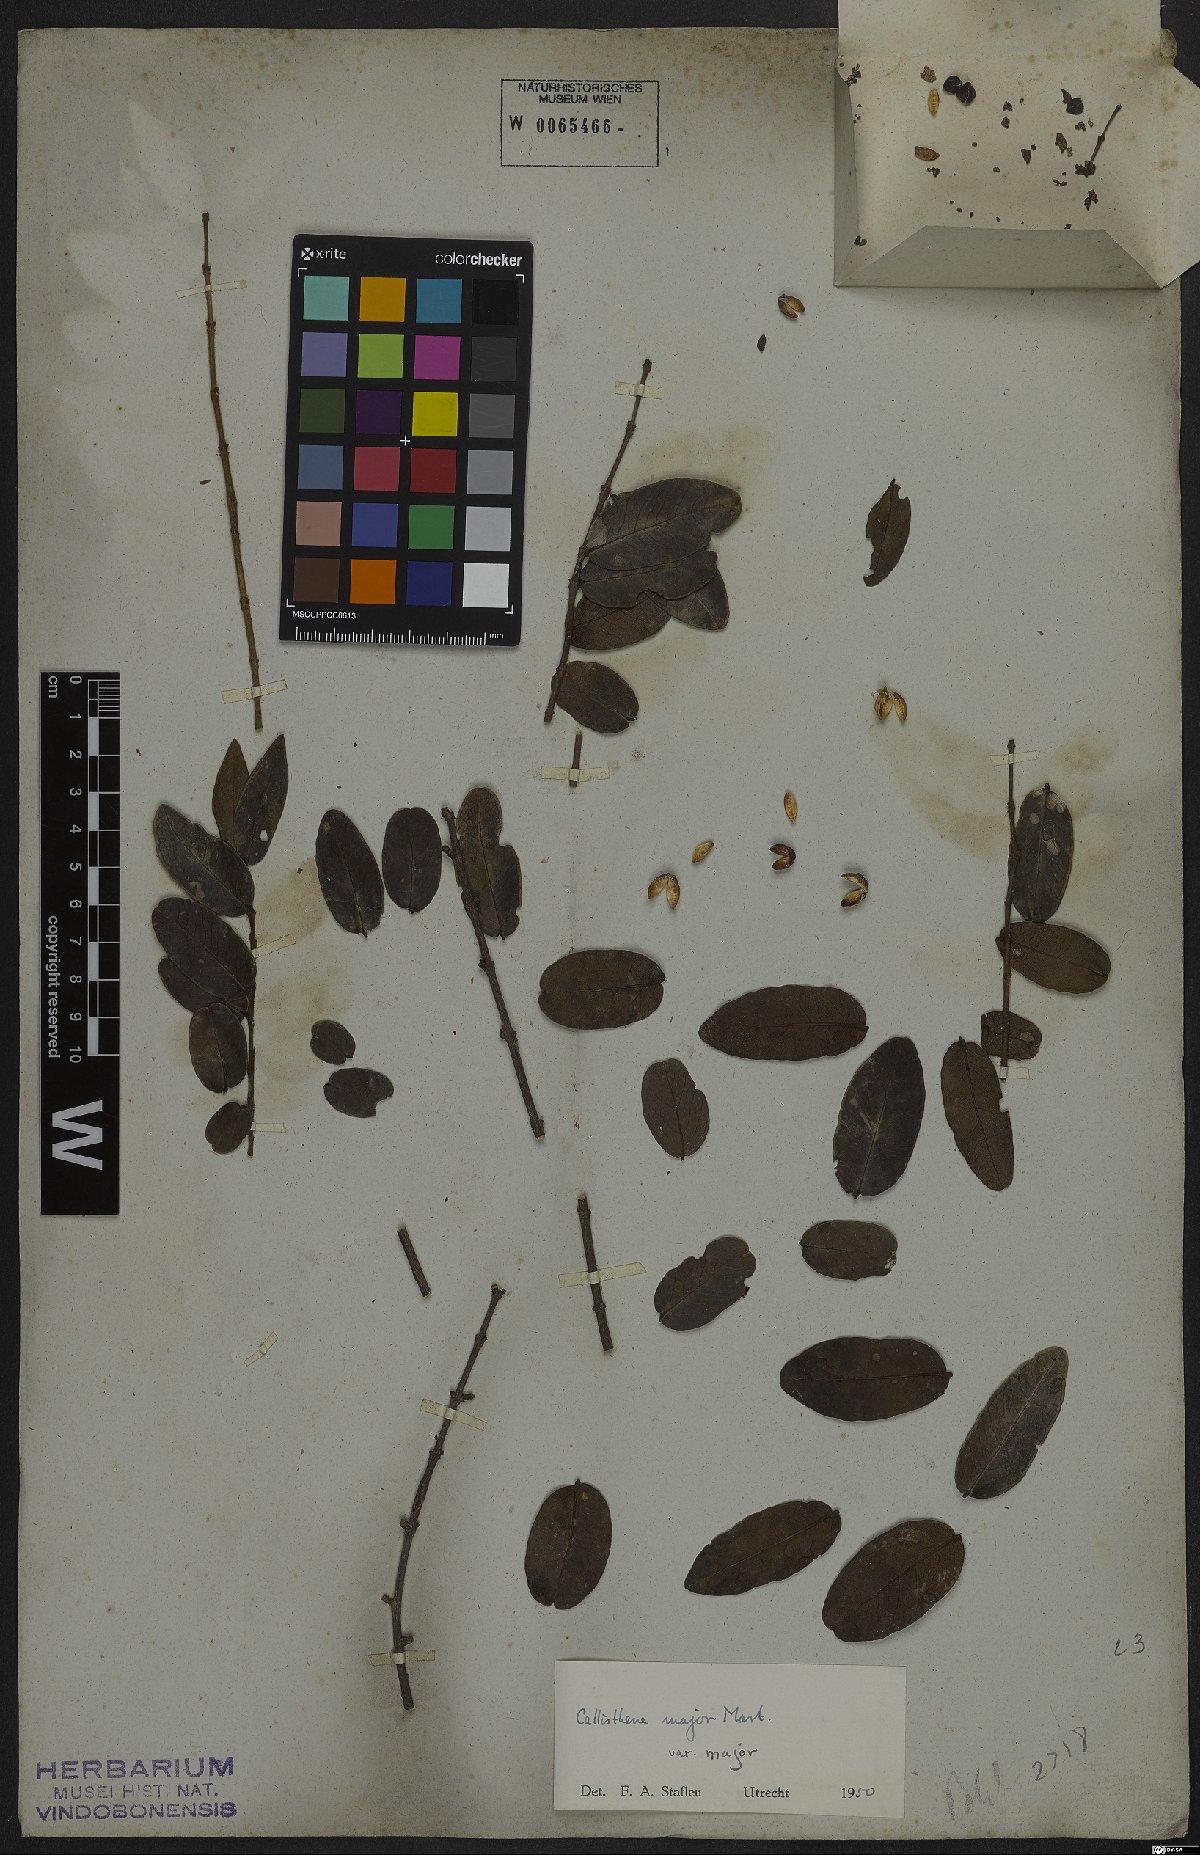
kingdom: Plantae
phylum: Tracheophyta
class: Magnoliopsida
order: Myrtales
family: Vochysiaceae
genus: Callisthene
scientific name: Callisthene major
